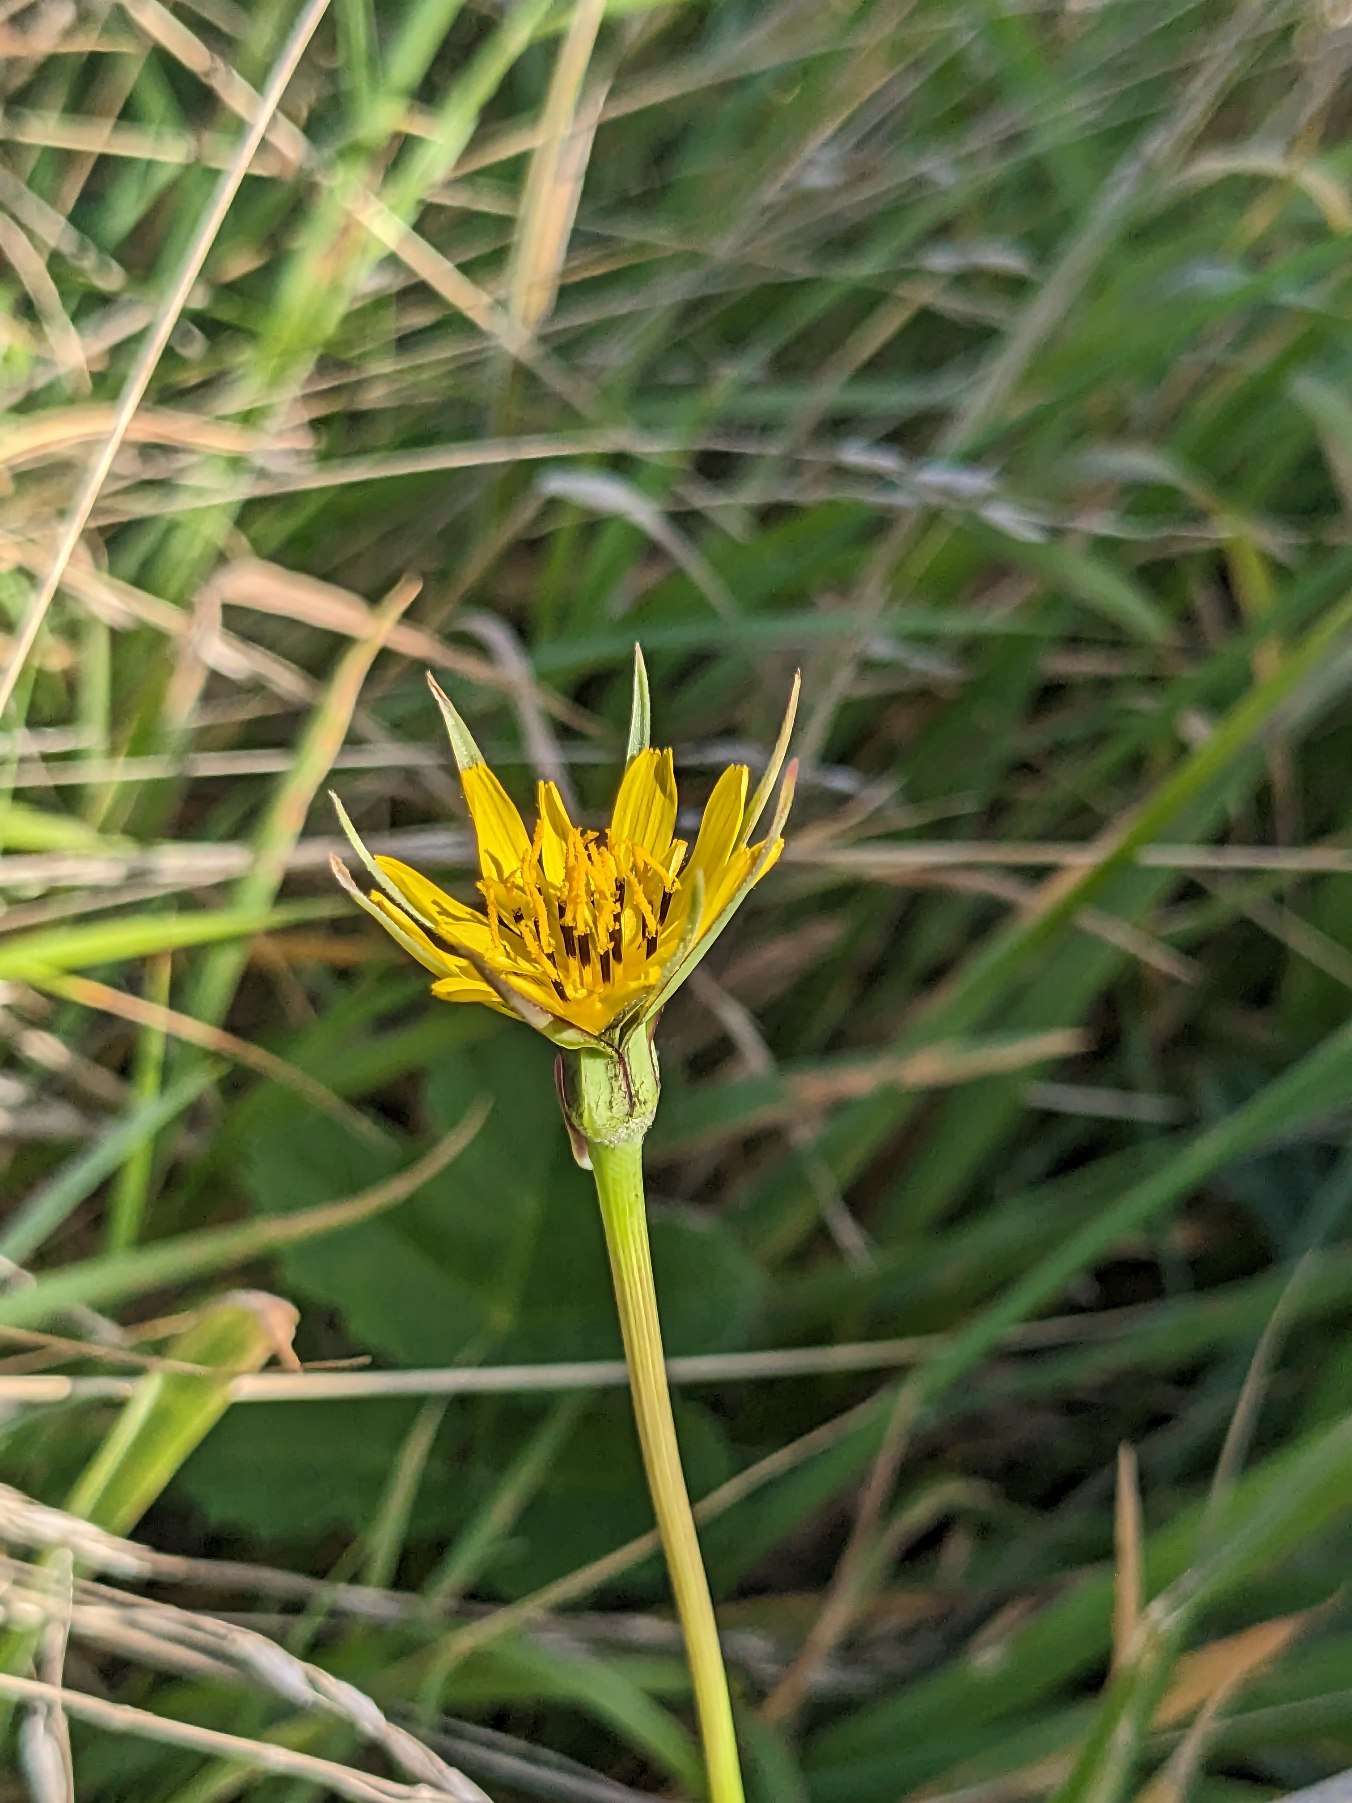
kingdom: Plantae
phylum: Tracheophyta
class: Magnoliopsida
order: Asterales
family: Asteraceae
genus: Tragopogon
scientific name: Tragopogon minor
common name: Småkronet gedeskæg
